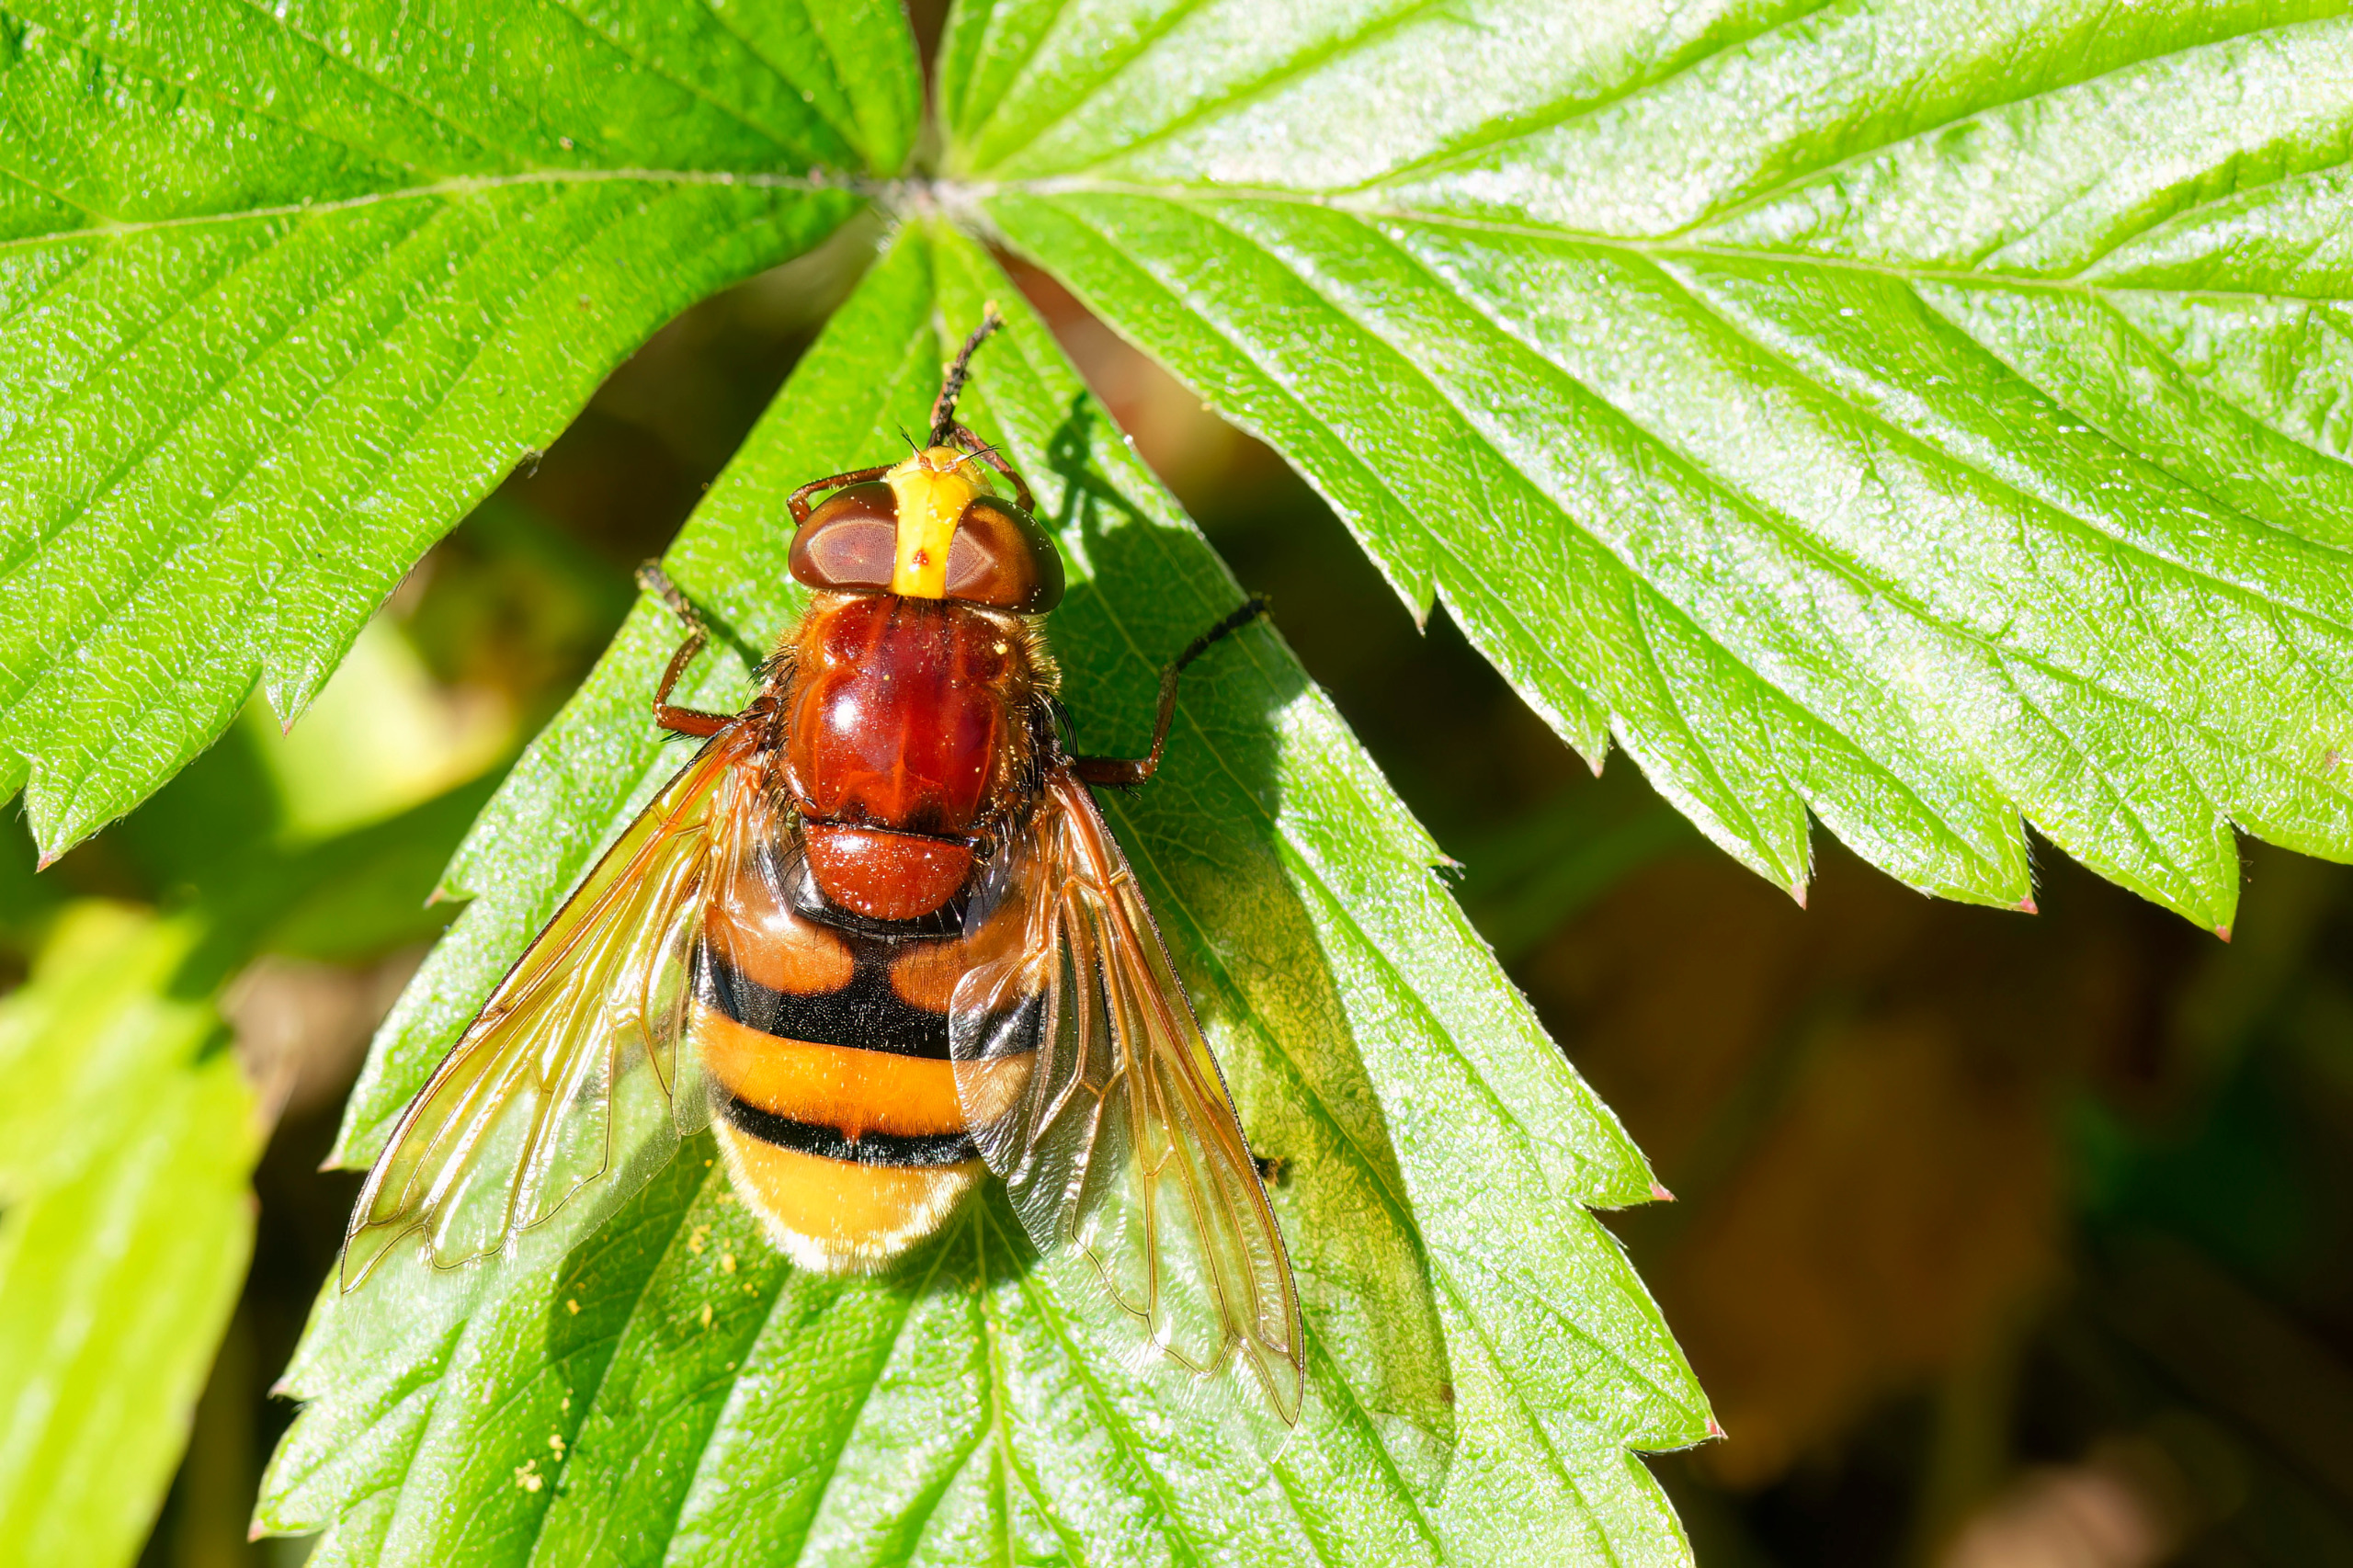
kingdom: Animalia
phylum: Arthropoda
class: Insecta
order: Diptera
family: Syrphidae
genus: Volucella
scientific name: Volucella zonaria
